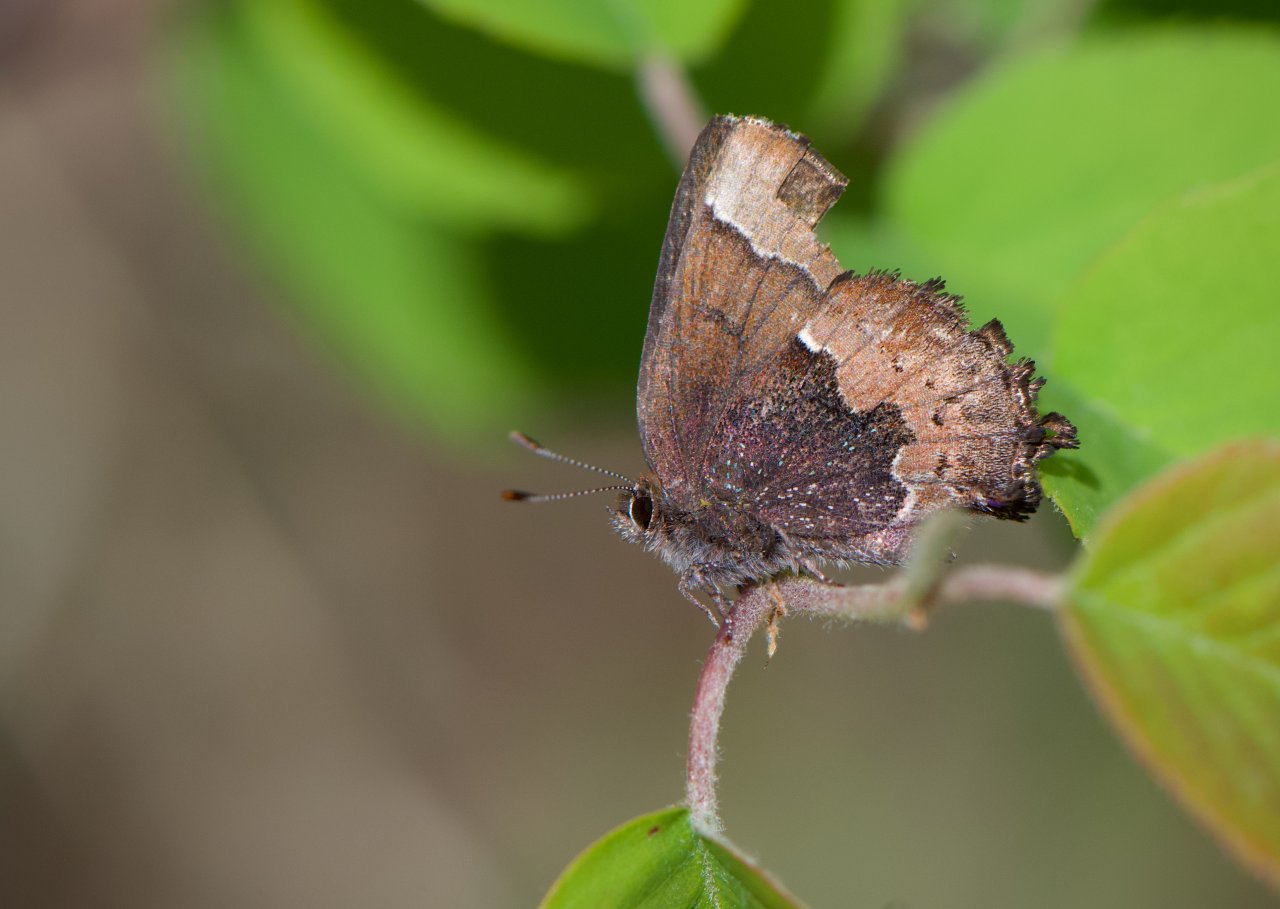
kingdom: Animalia
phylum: Arthropoda
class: Insecta
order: Lepidoptera
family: Lycaenidae
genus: Incisalia
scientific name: Incisalia henrici
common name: Henry's Elfin
